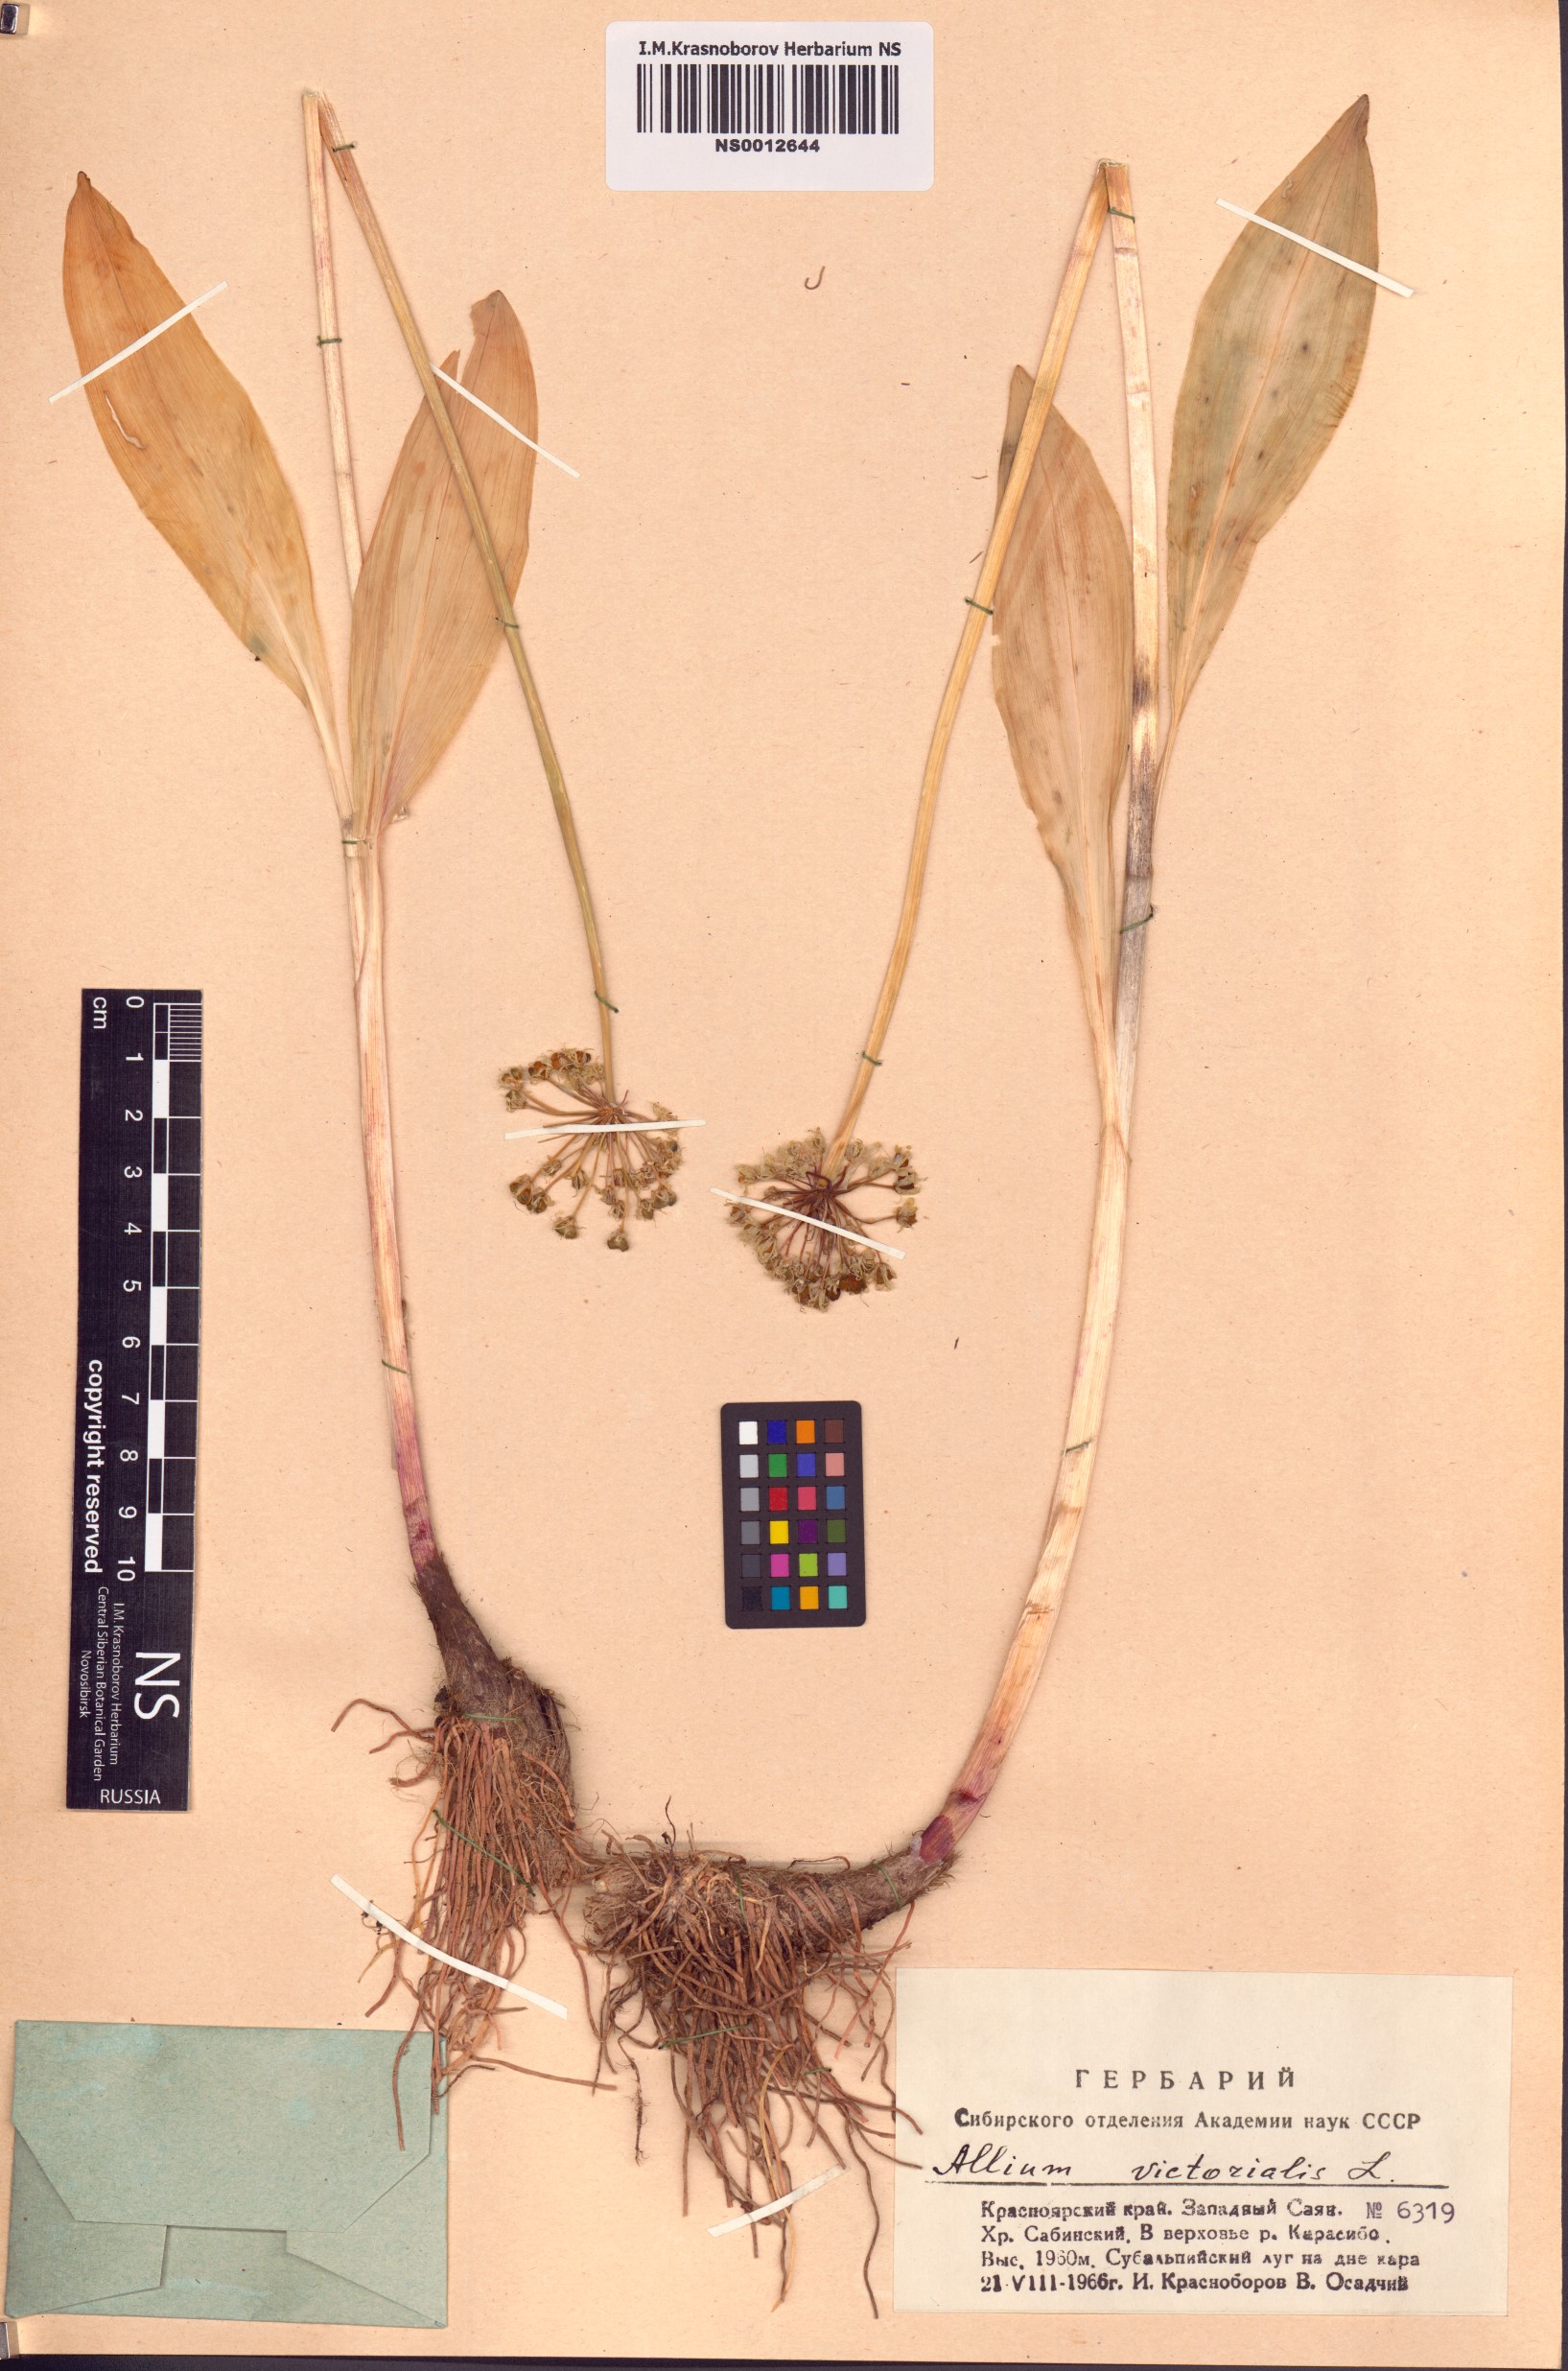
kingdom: Plantae
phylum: Tracheophyta
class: Liliopsida
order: Asparagales
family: Amaryllidaceae
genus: Allium
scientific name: Allium microdictyon
